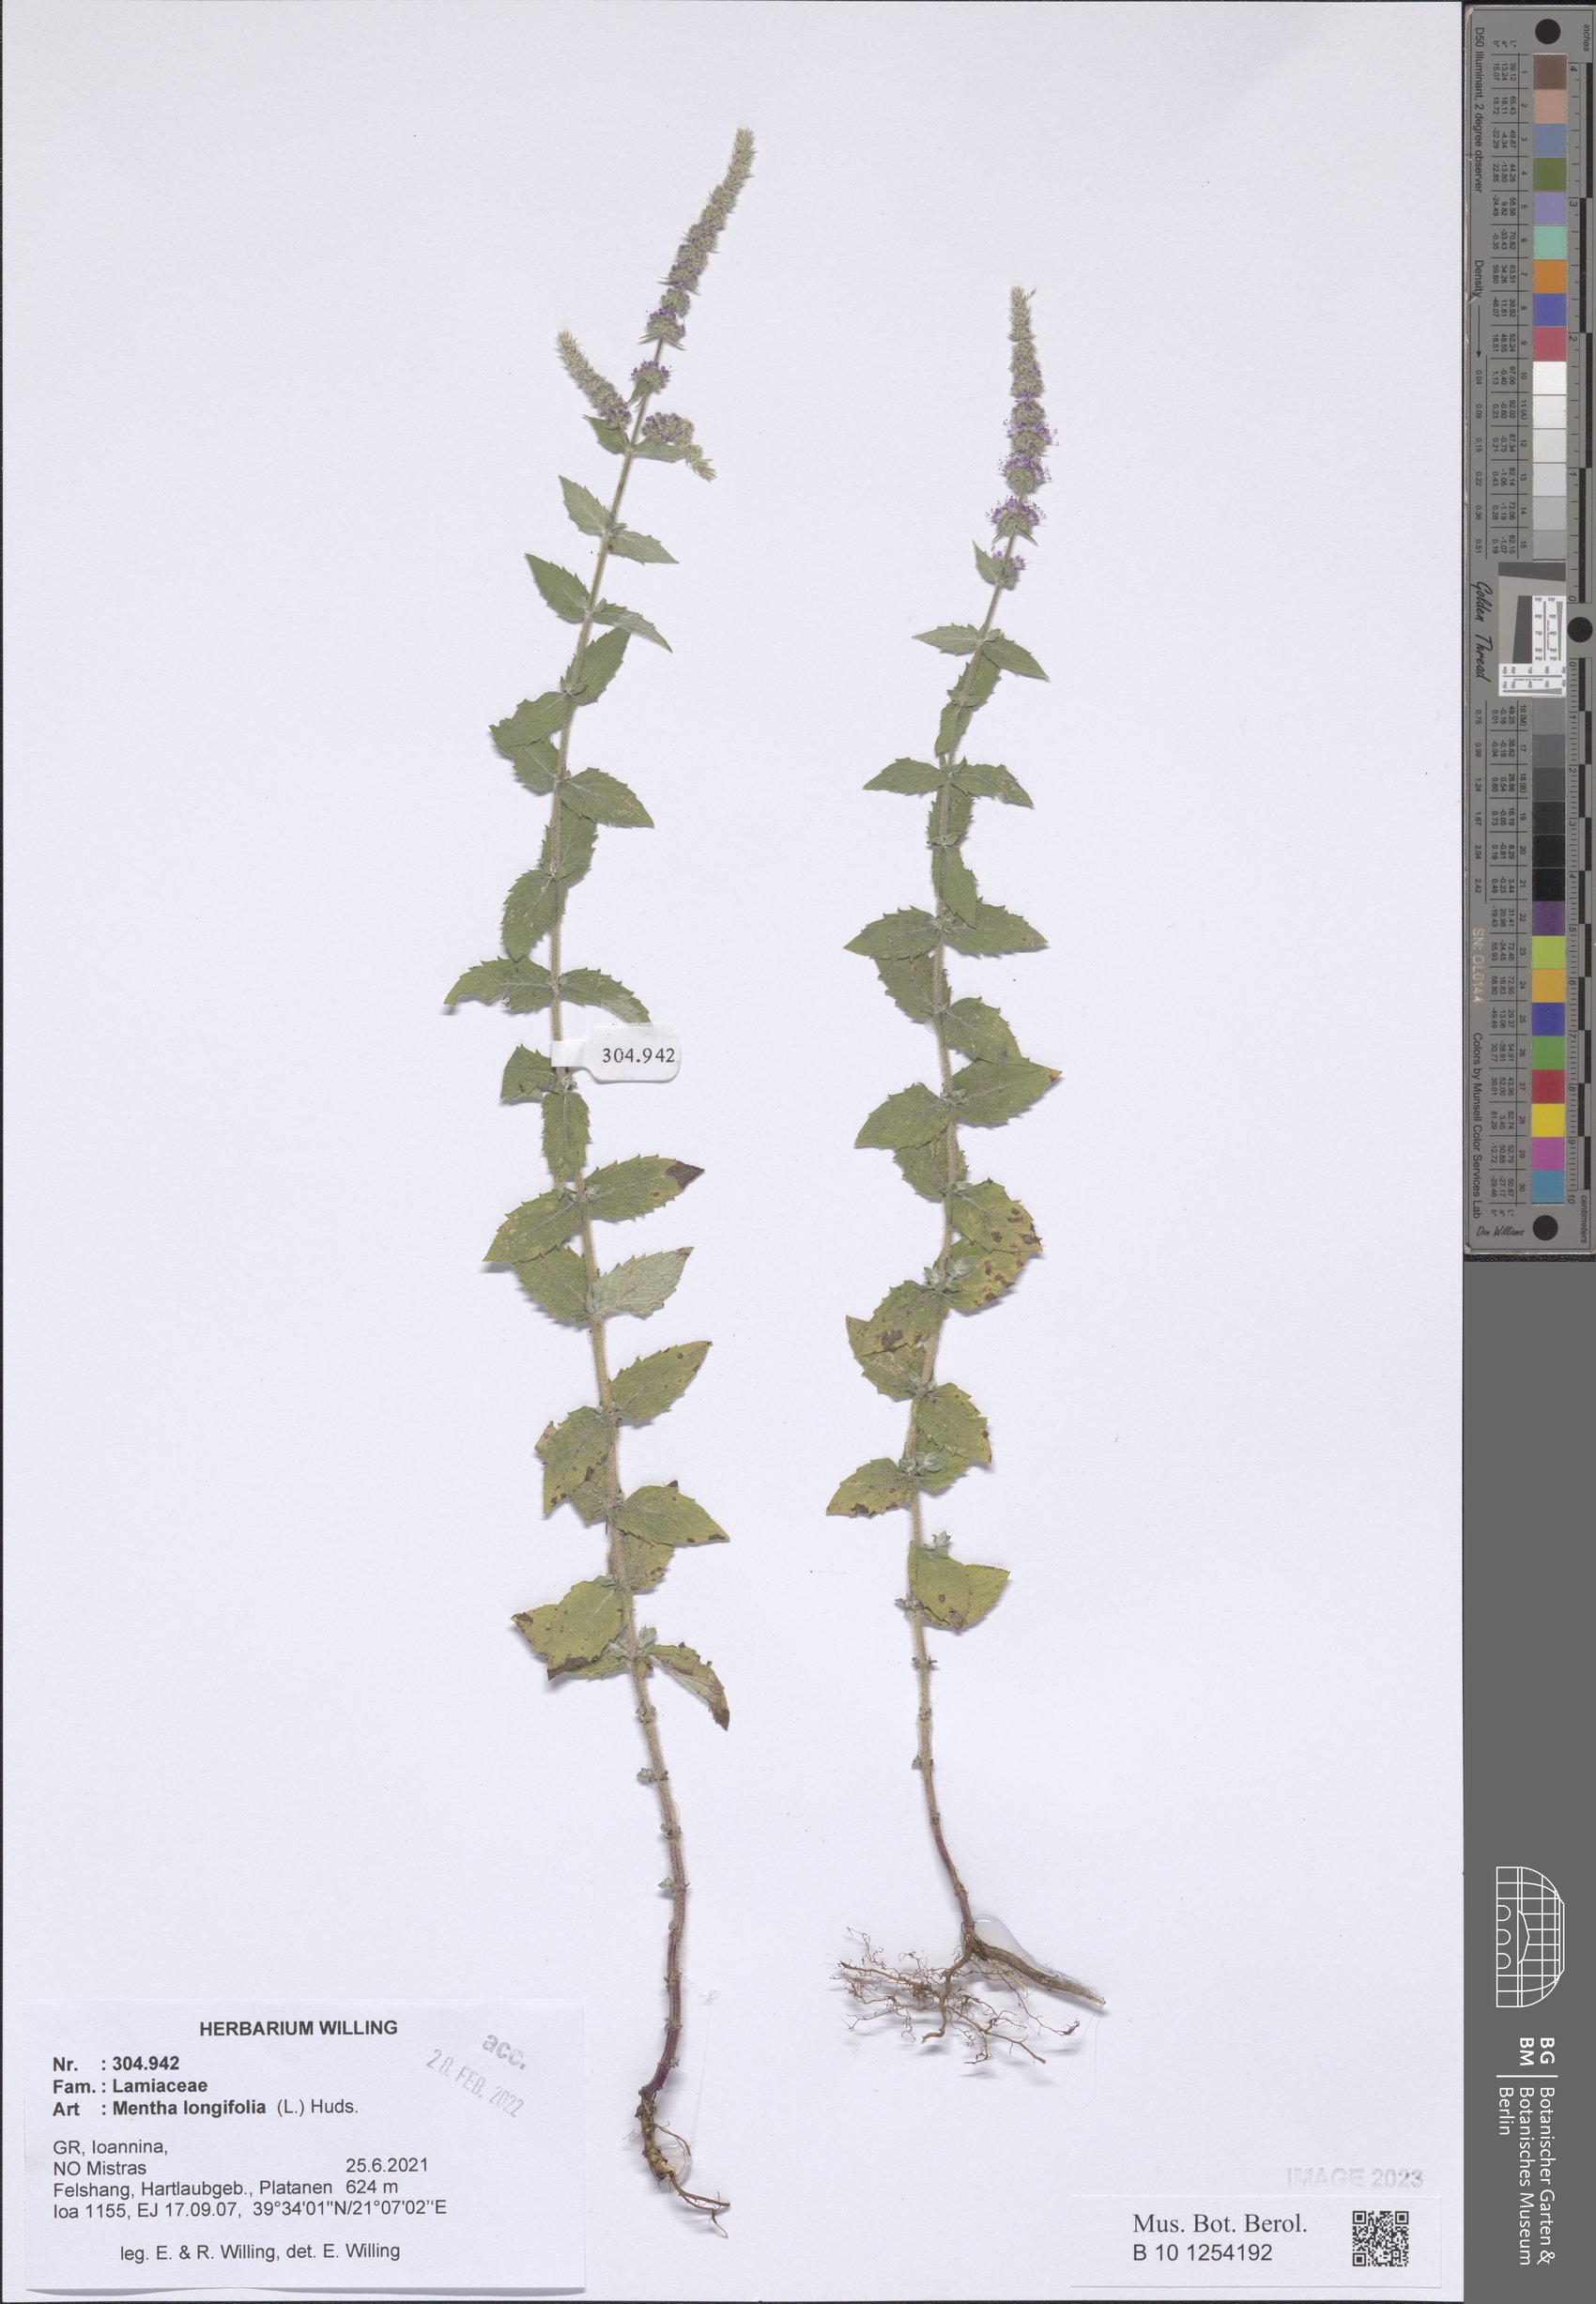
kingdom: Plantae
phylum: Tracheophyta
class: Magnoliopsida
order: Lamiales
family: Lamiaceae
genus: Mentha
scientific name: Mentha longifolia
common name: Horse mint
